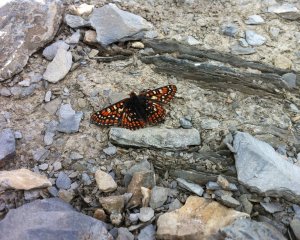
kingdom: Animalia
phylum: Arthropoda
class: Insecta
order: Lepidoptera
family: Nymphalidae
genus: Occidryas
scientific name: Occidryas editha
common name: Edith's Checkerspot
